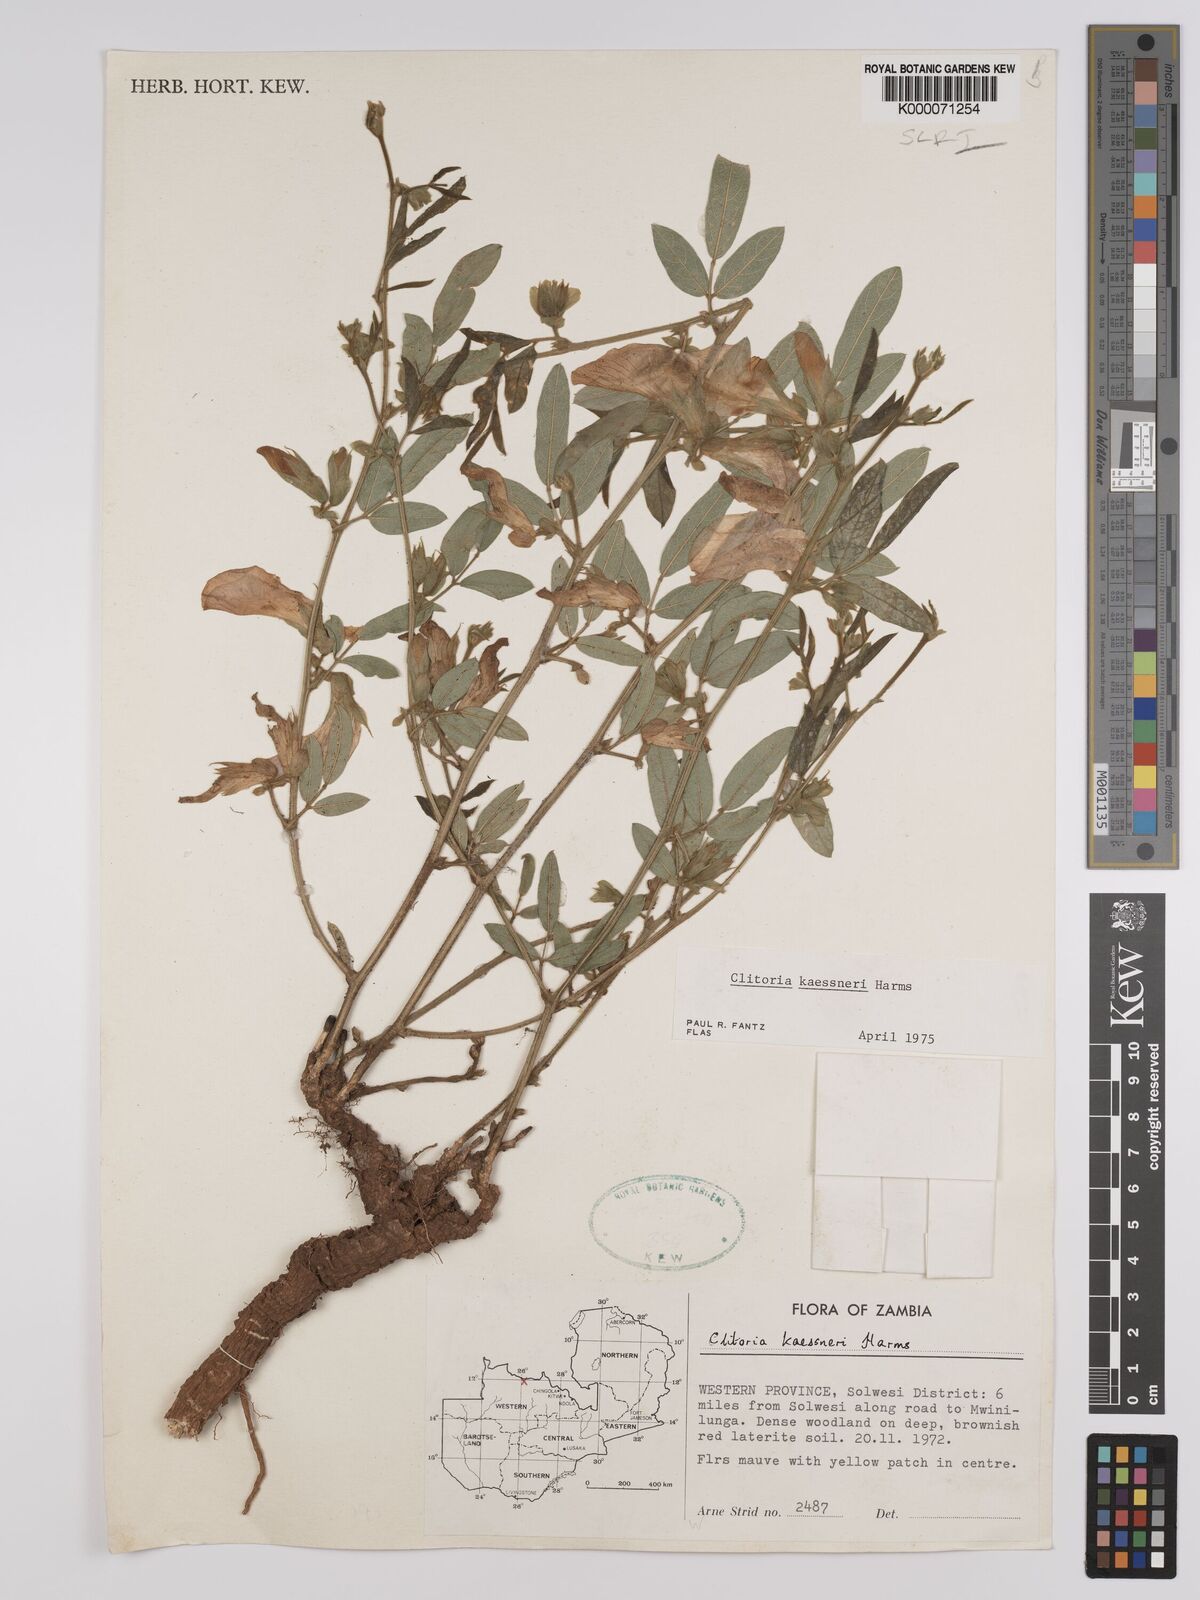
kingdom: Plantae
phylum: Tracheophyta
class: Magnoliopsida
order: Fabales
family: Fabaceae
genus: Clitoria
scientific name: Clitoria kaessneri
